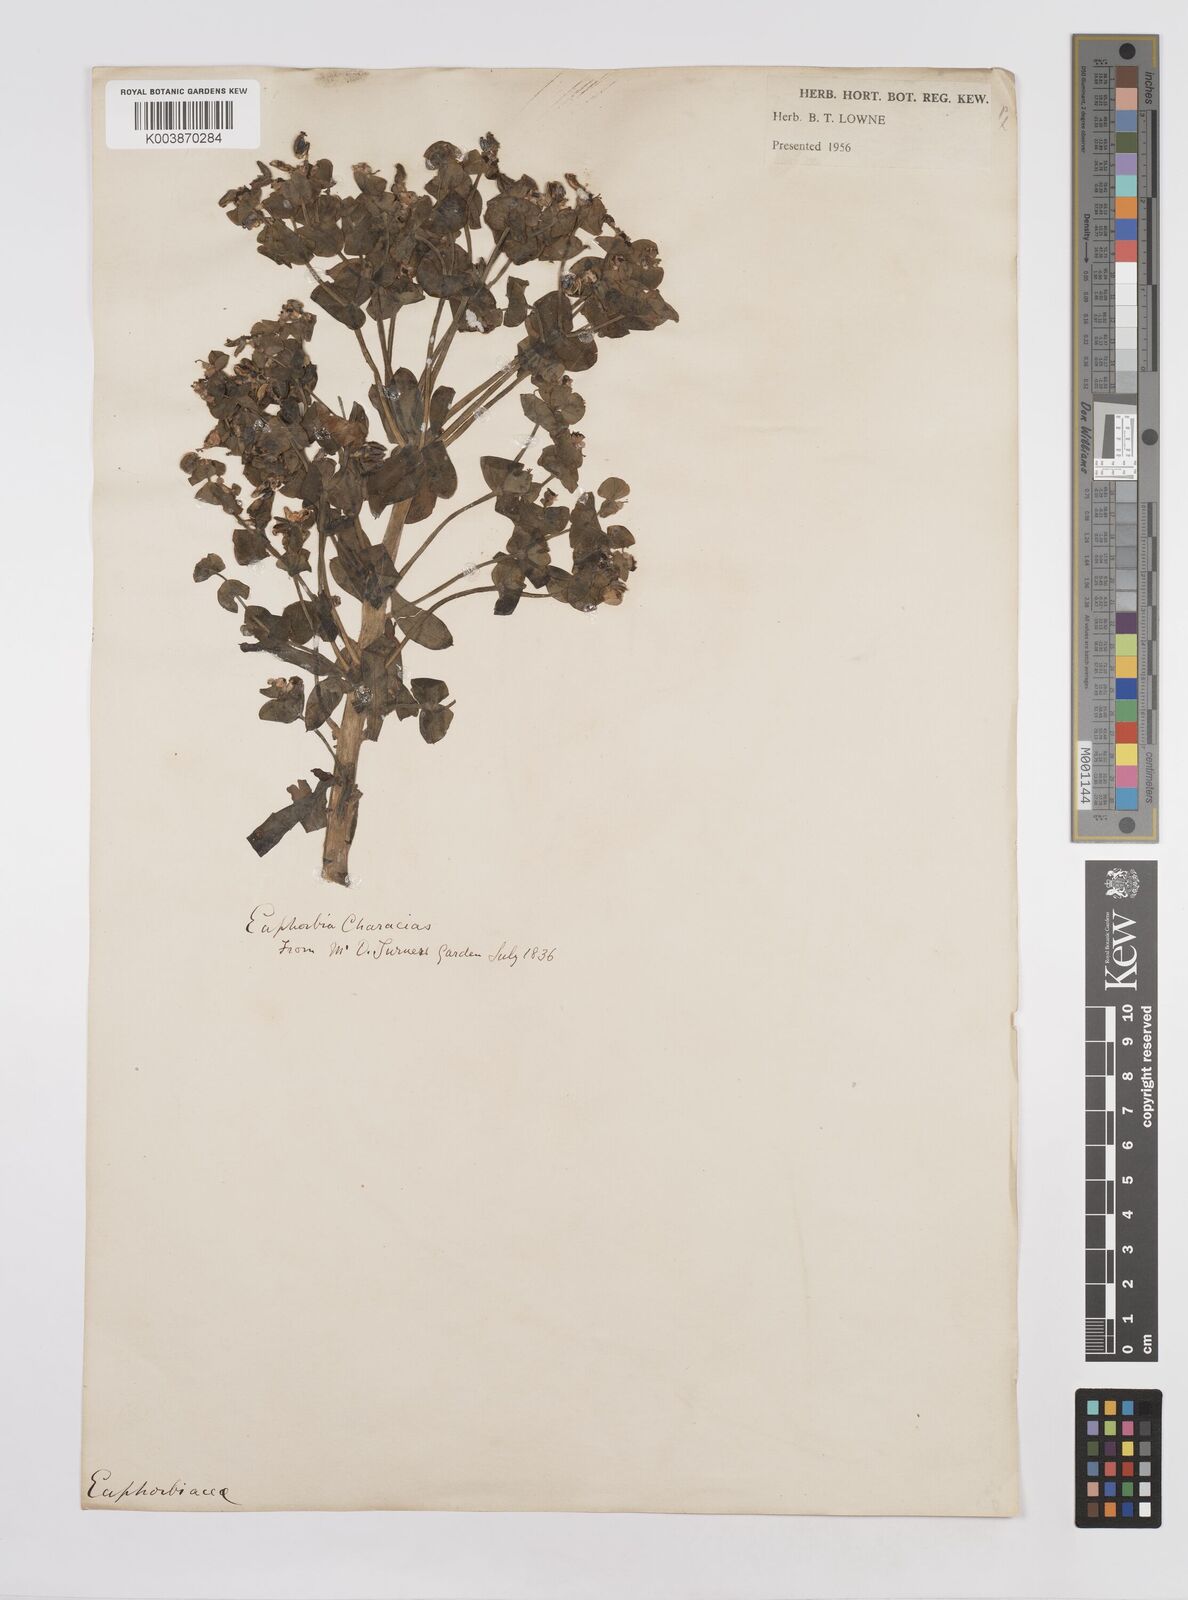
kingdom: Plantae
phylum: Tracheophyta
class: Magnoliopsida
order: Malpighiales
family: Euphorbiaceae
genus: Euphorbia
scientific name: Euphorbia characias
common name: Mediterranean spurge
